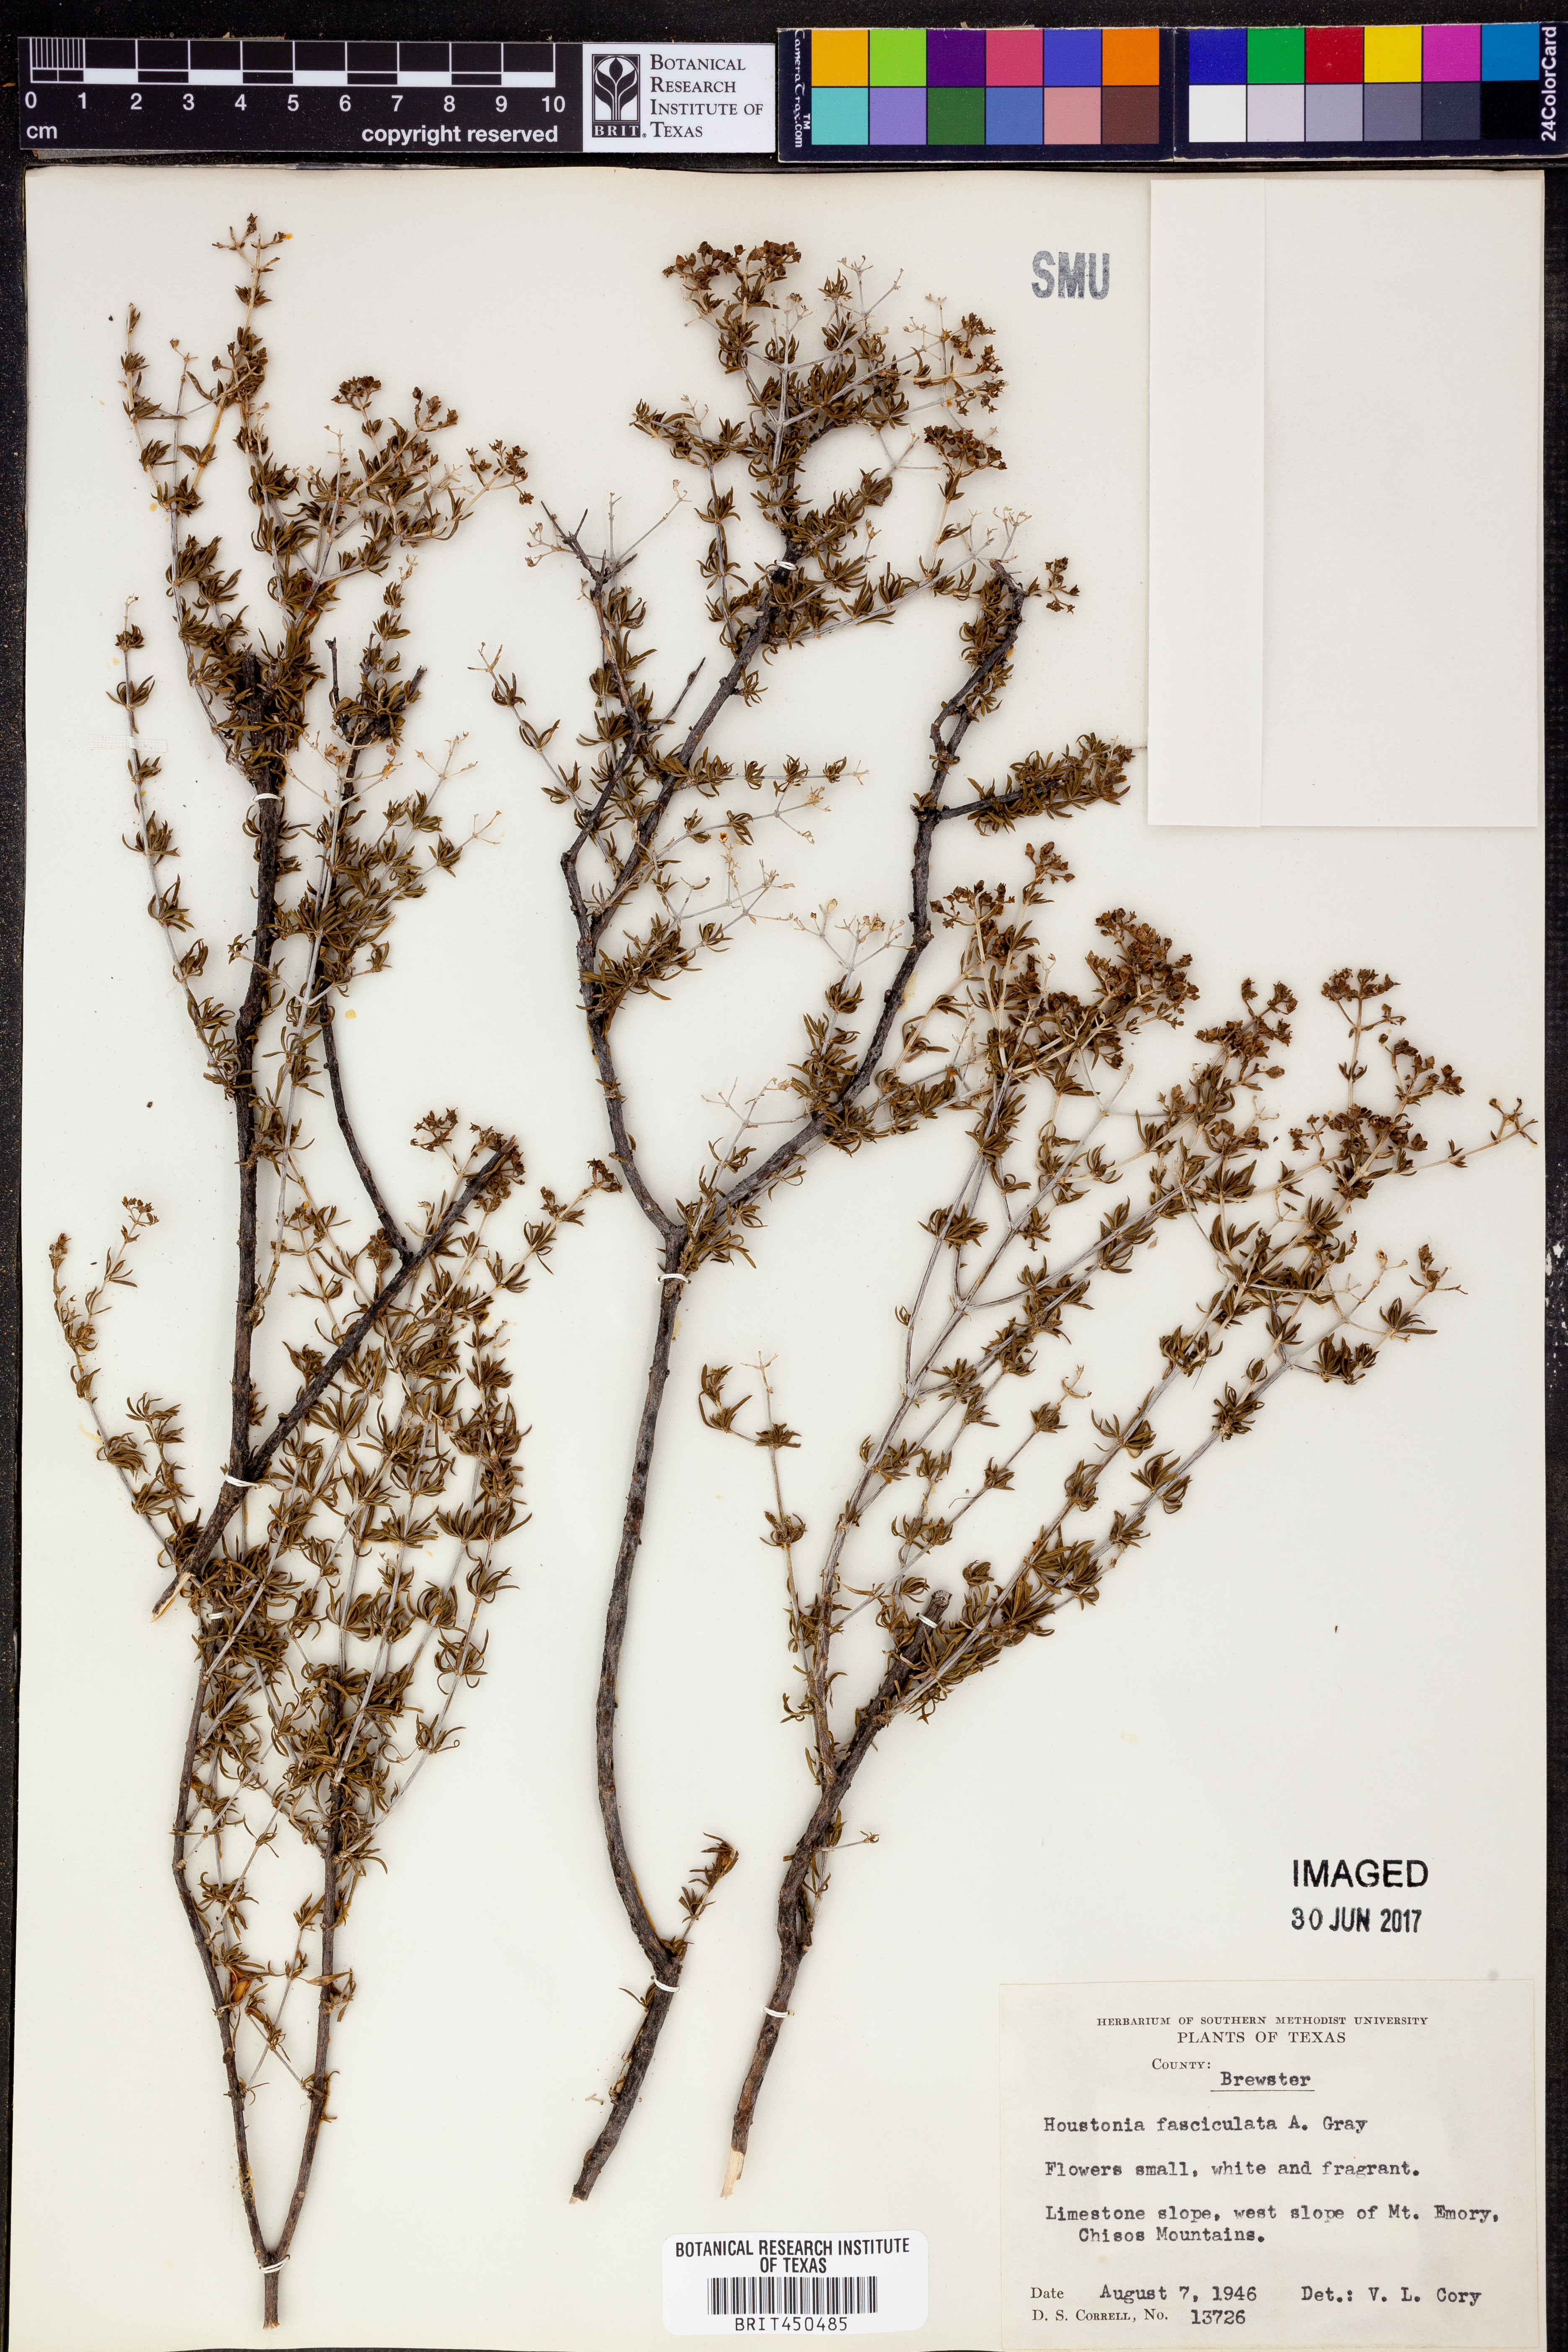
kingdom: Plantae
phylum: Tracheophyta
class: Magnoliopsida
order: Gentianales
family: Rubiaceae
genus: Arcytophyllum
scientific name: Arcytophyllum fasciculatum
